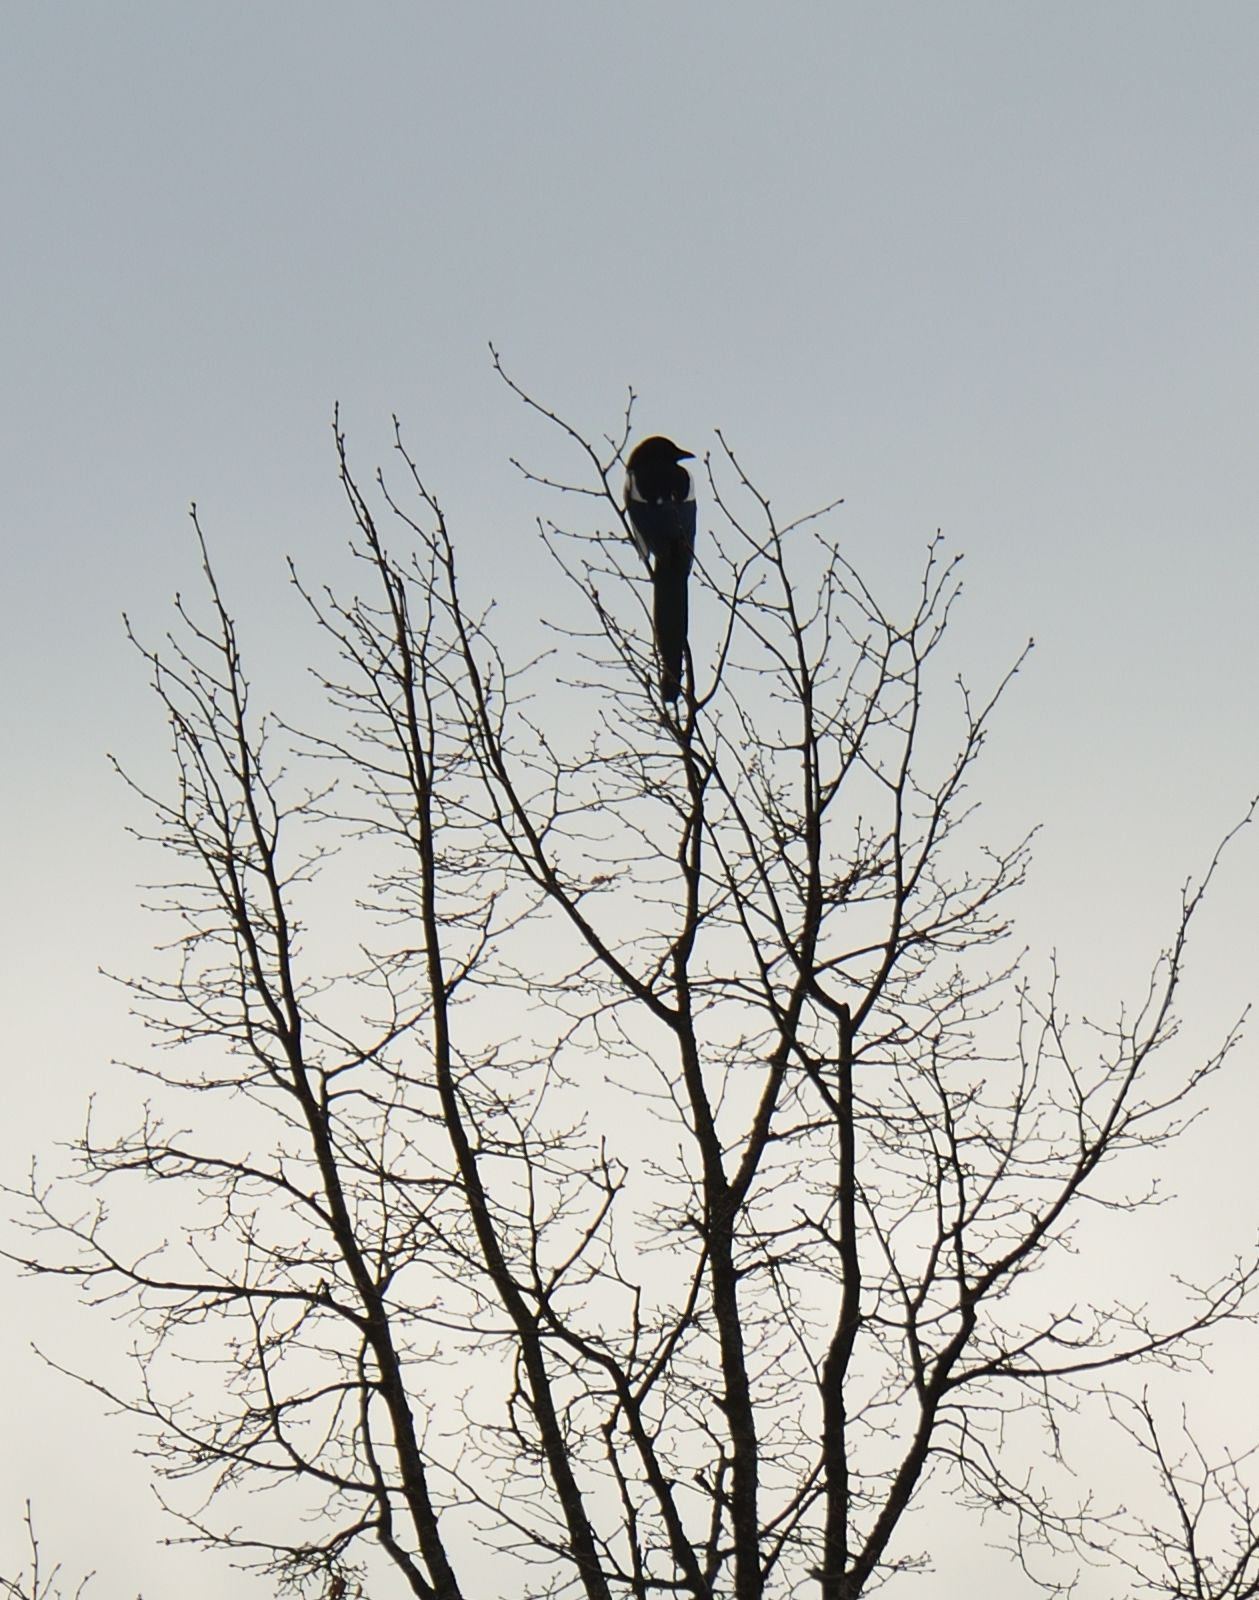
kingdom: Animalia
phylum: Chordata
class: Aves
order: Passeriformes
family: Corvidae
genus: Pica
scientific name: Pica pica
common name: Eurasian magpie
